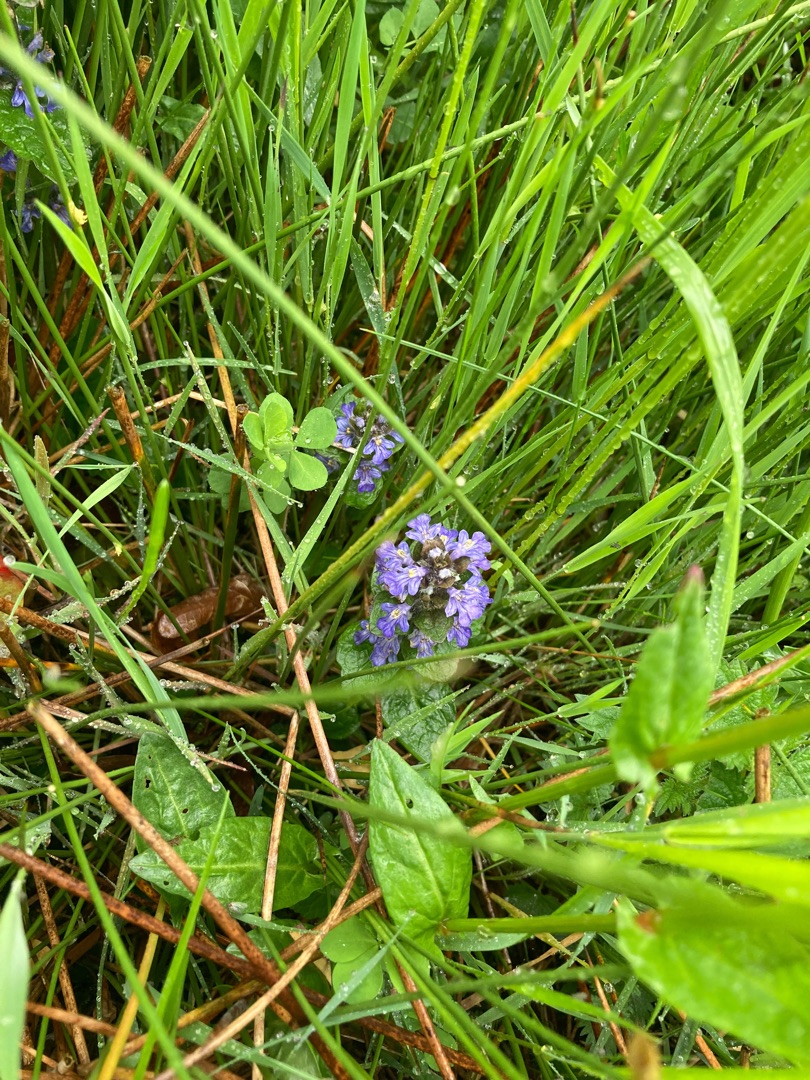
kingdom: Plantae
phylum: Tracheophyta
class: Magnoliopsida
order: Lamiales
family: Lamiaceae
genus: Ajuga
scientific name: Ajuga reptans
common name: Krybende læbeløs
